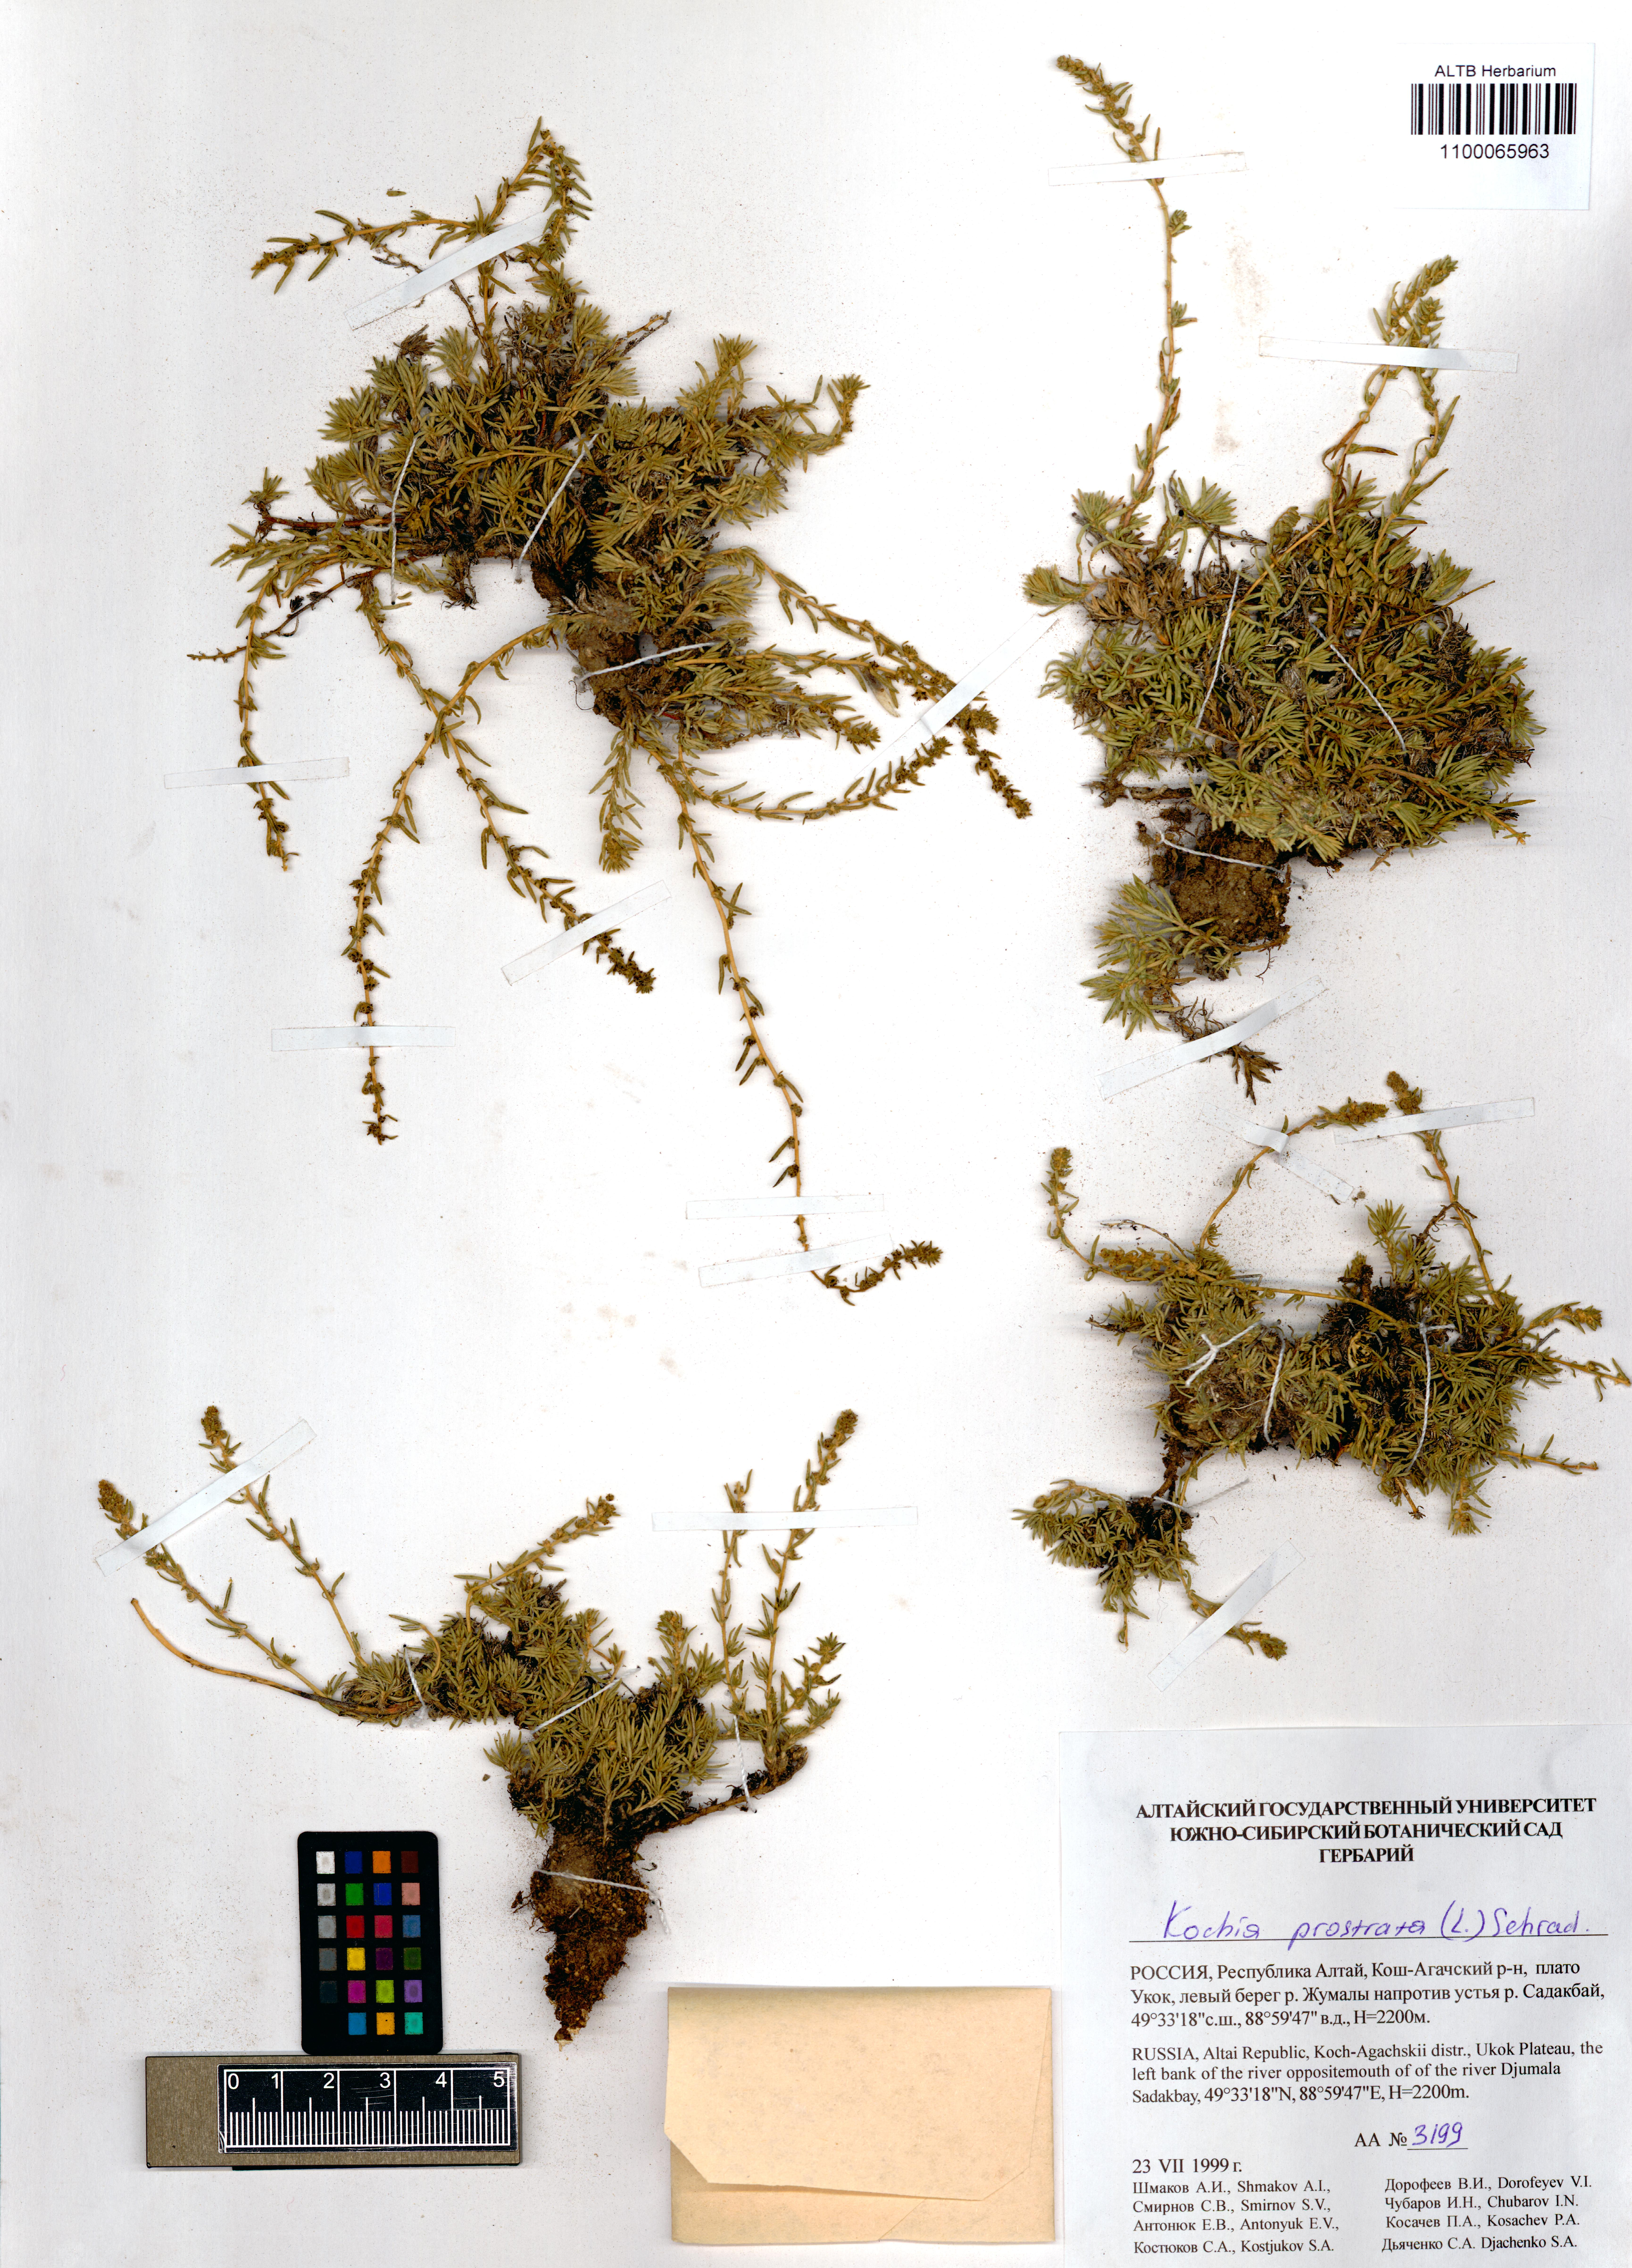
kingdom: Plantae
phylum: Tracheophyta
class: Magnoliopsida
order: Caryophyllales
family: Amaranthaceae
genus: Bassia
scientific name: Bassia prostrata
